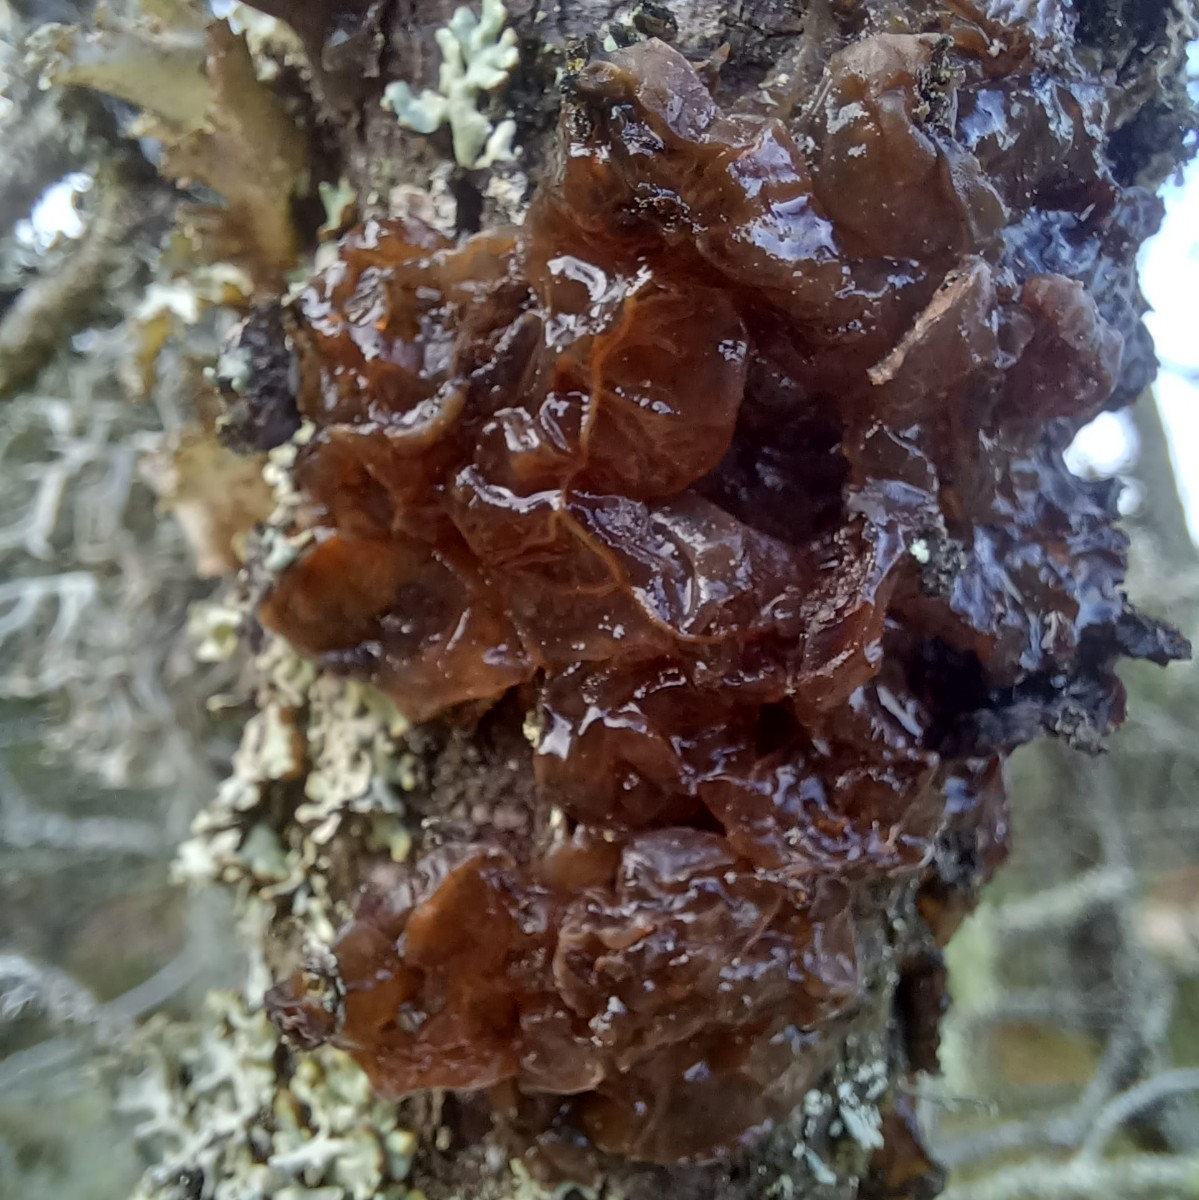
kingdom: Fungi
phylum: Basidiomycota
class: Tremellomycetes
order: Tremellales
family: Tremellaceae
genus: Phaeotremella
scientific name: Phaeotremella foliacea
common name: brun bævresvamp
